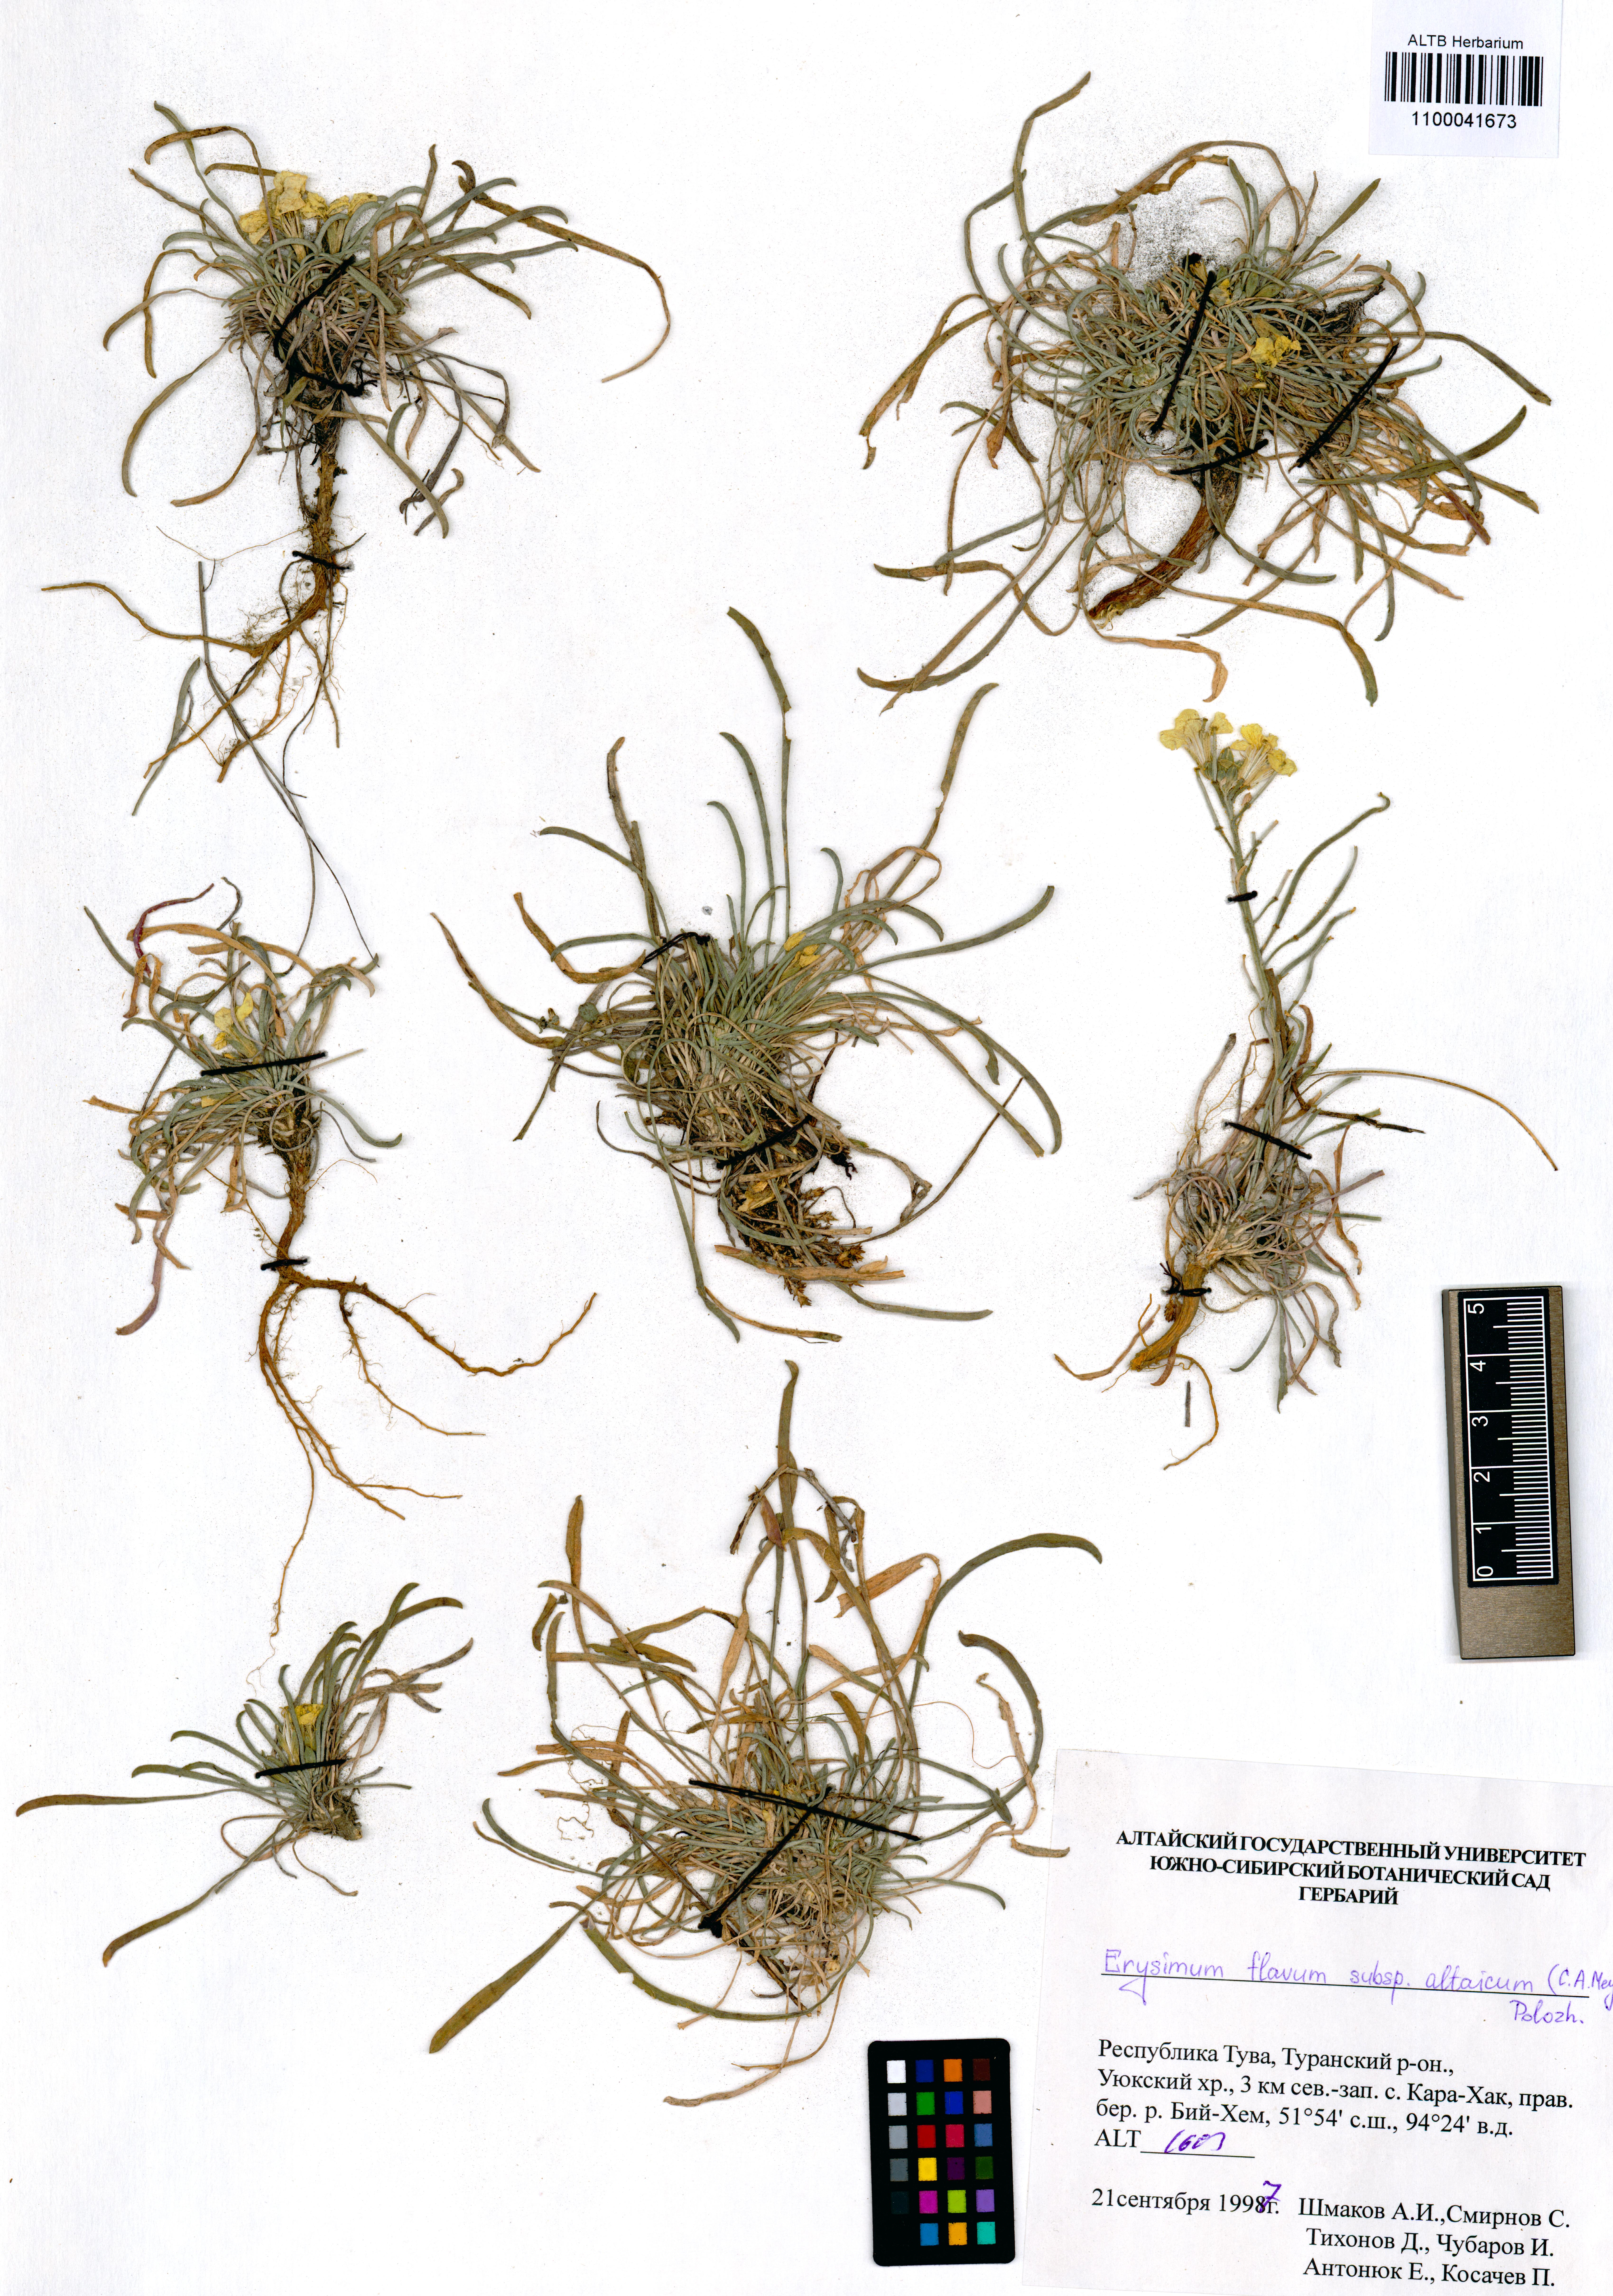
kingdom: Plantae
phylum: Tracheophyta
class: Magnoliopsida
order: Brassicales
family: Brassicaceae
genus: Erysimum
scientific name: Erysimum flavum
